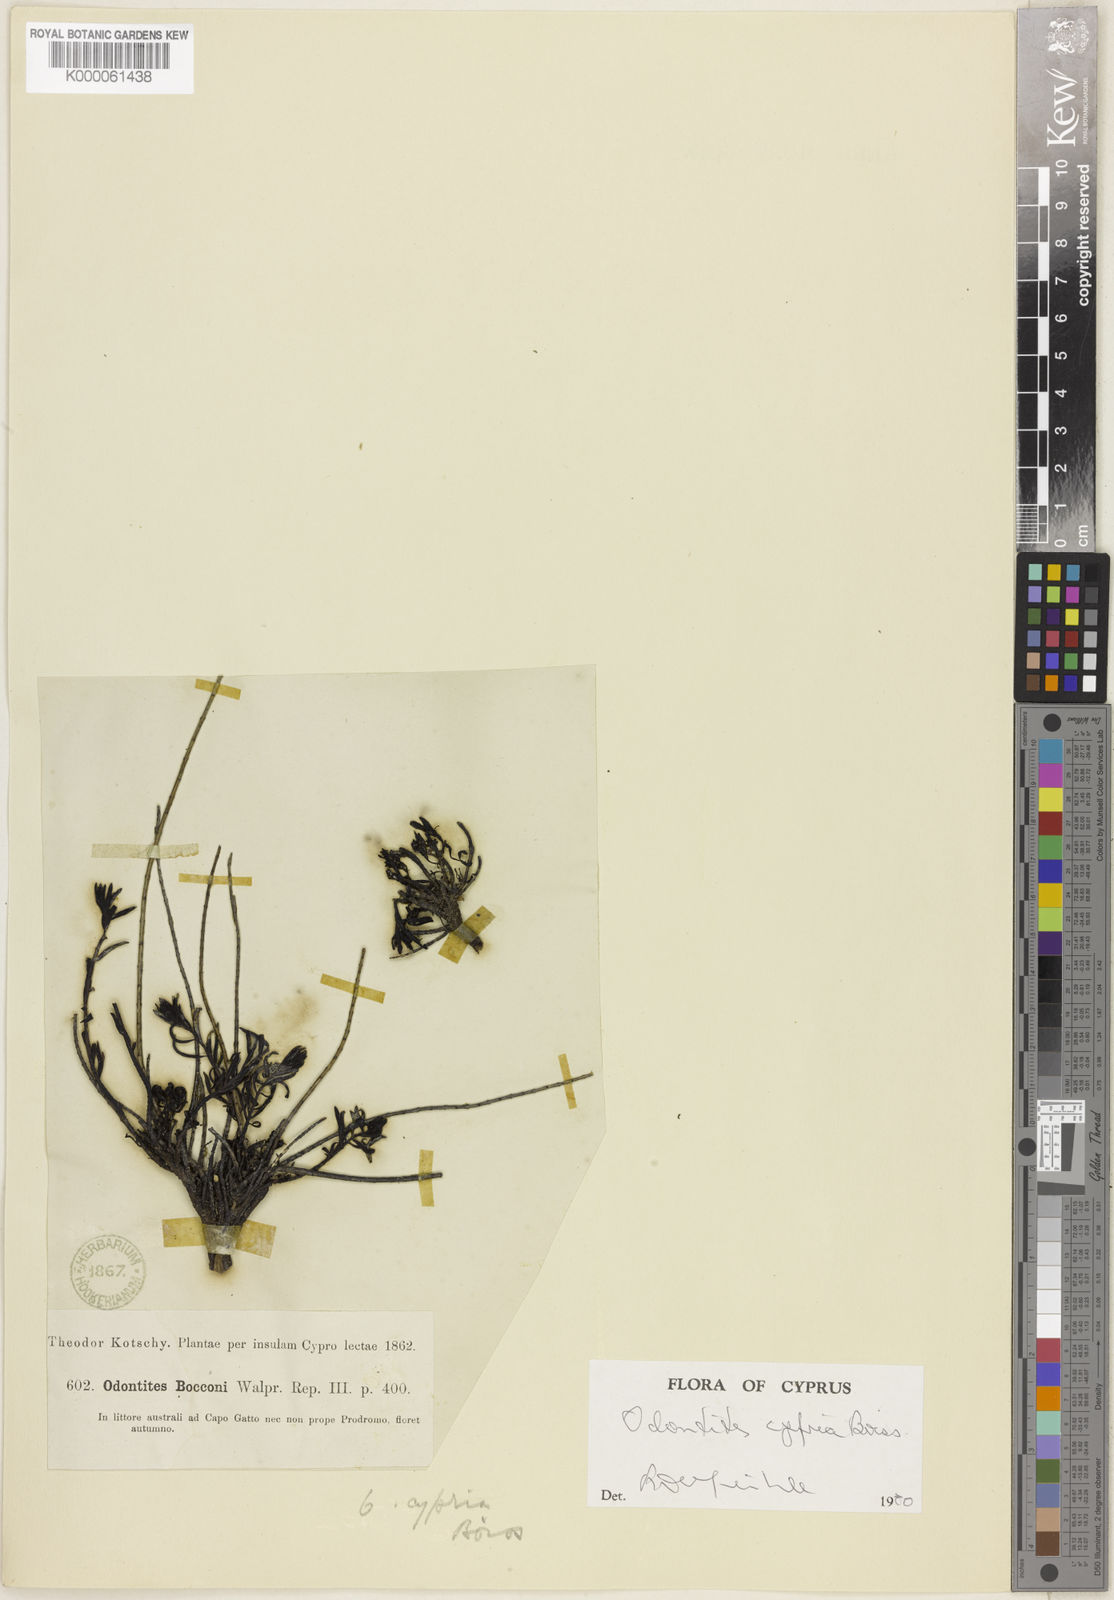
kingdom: Plantae
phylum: Tracheophyta
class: Magnoliopsida
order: Lamiales
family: Orobanchaceae
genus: Odontites
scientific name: Odontites
